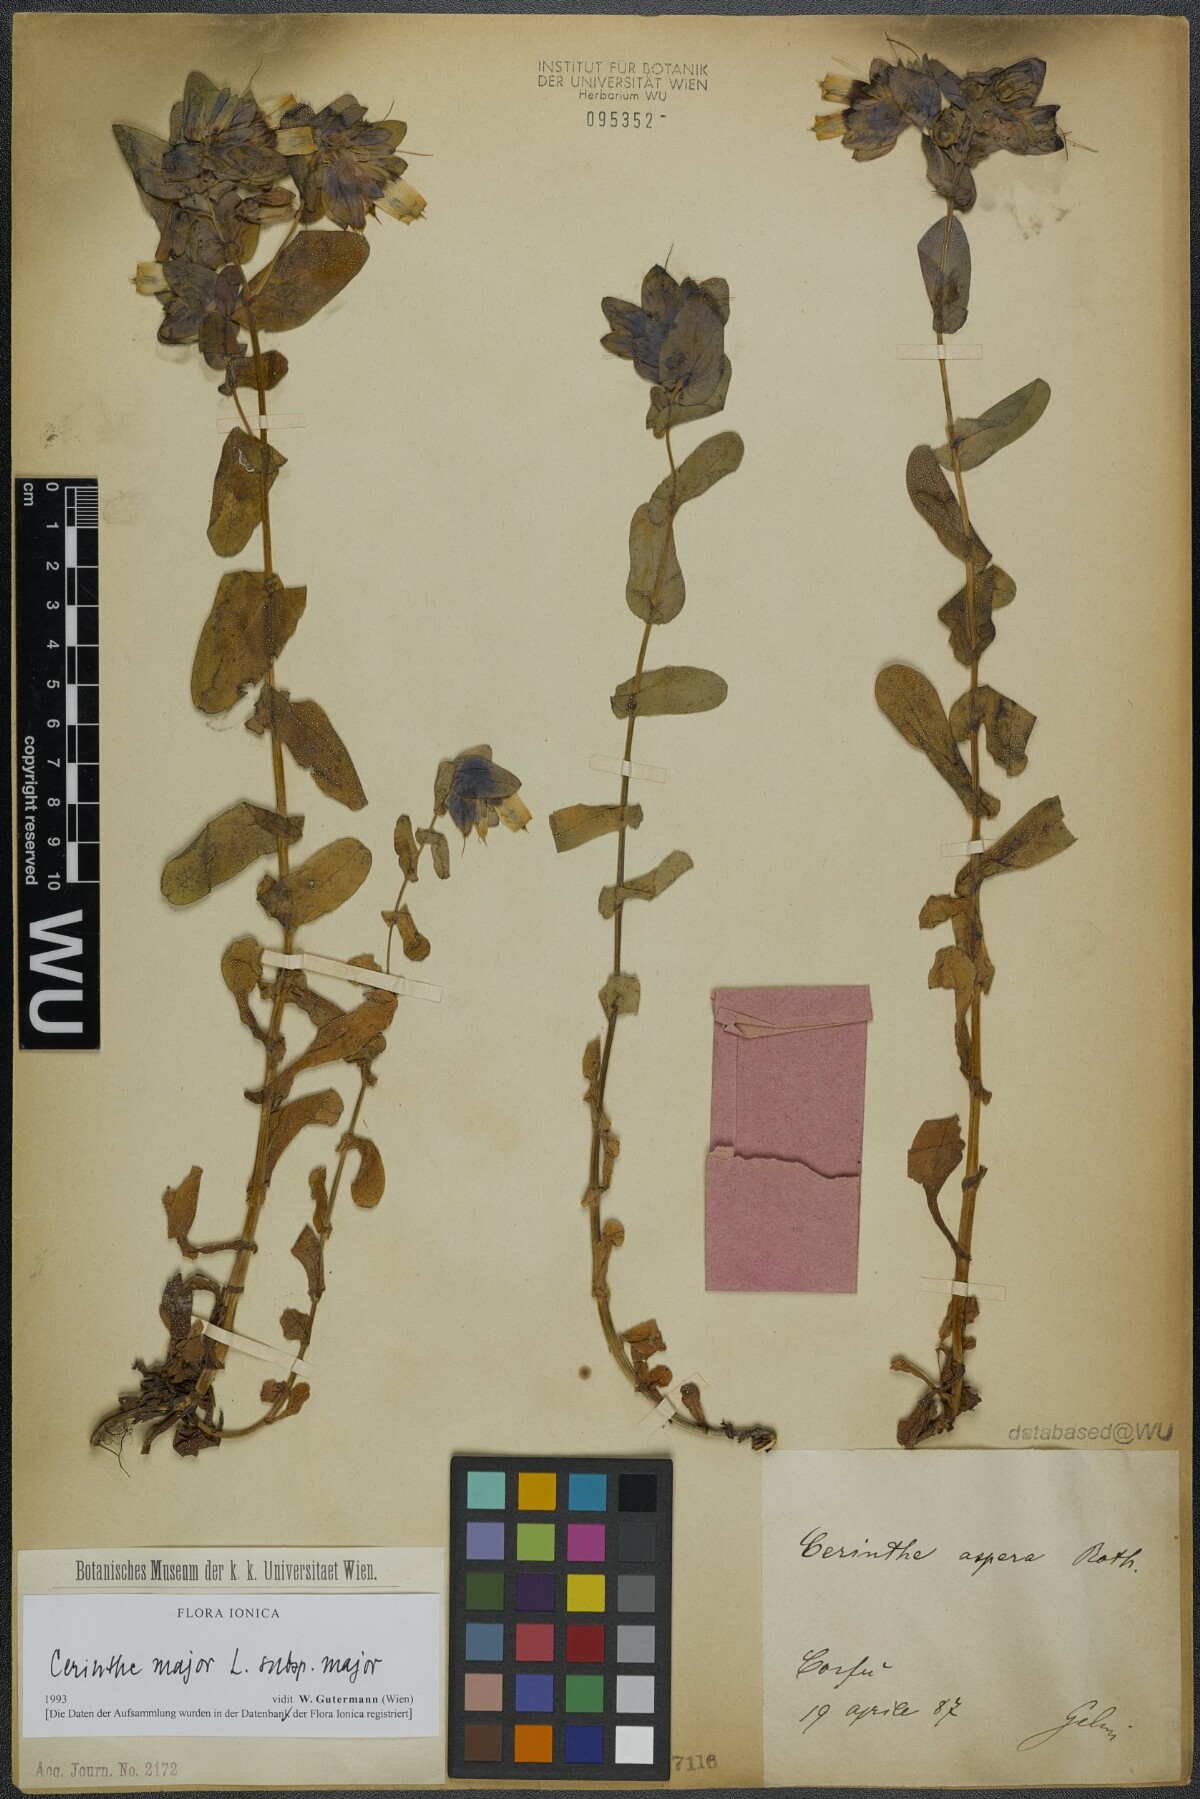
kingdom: Plantae
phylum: Tracheophyta
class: Magnoliopsida
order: Boraginales
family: Boraginaceae
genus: Cerinthe
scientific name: Cerinthe major
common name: Greater honeywort
